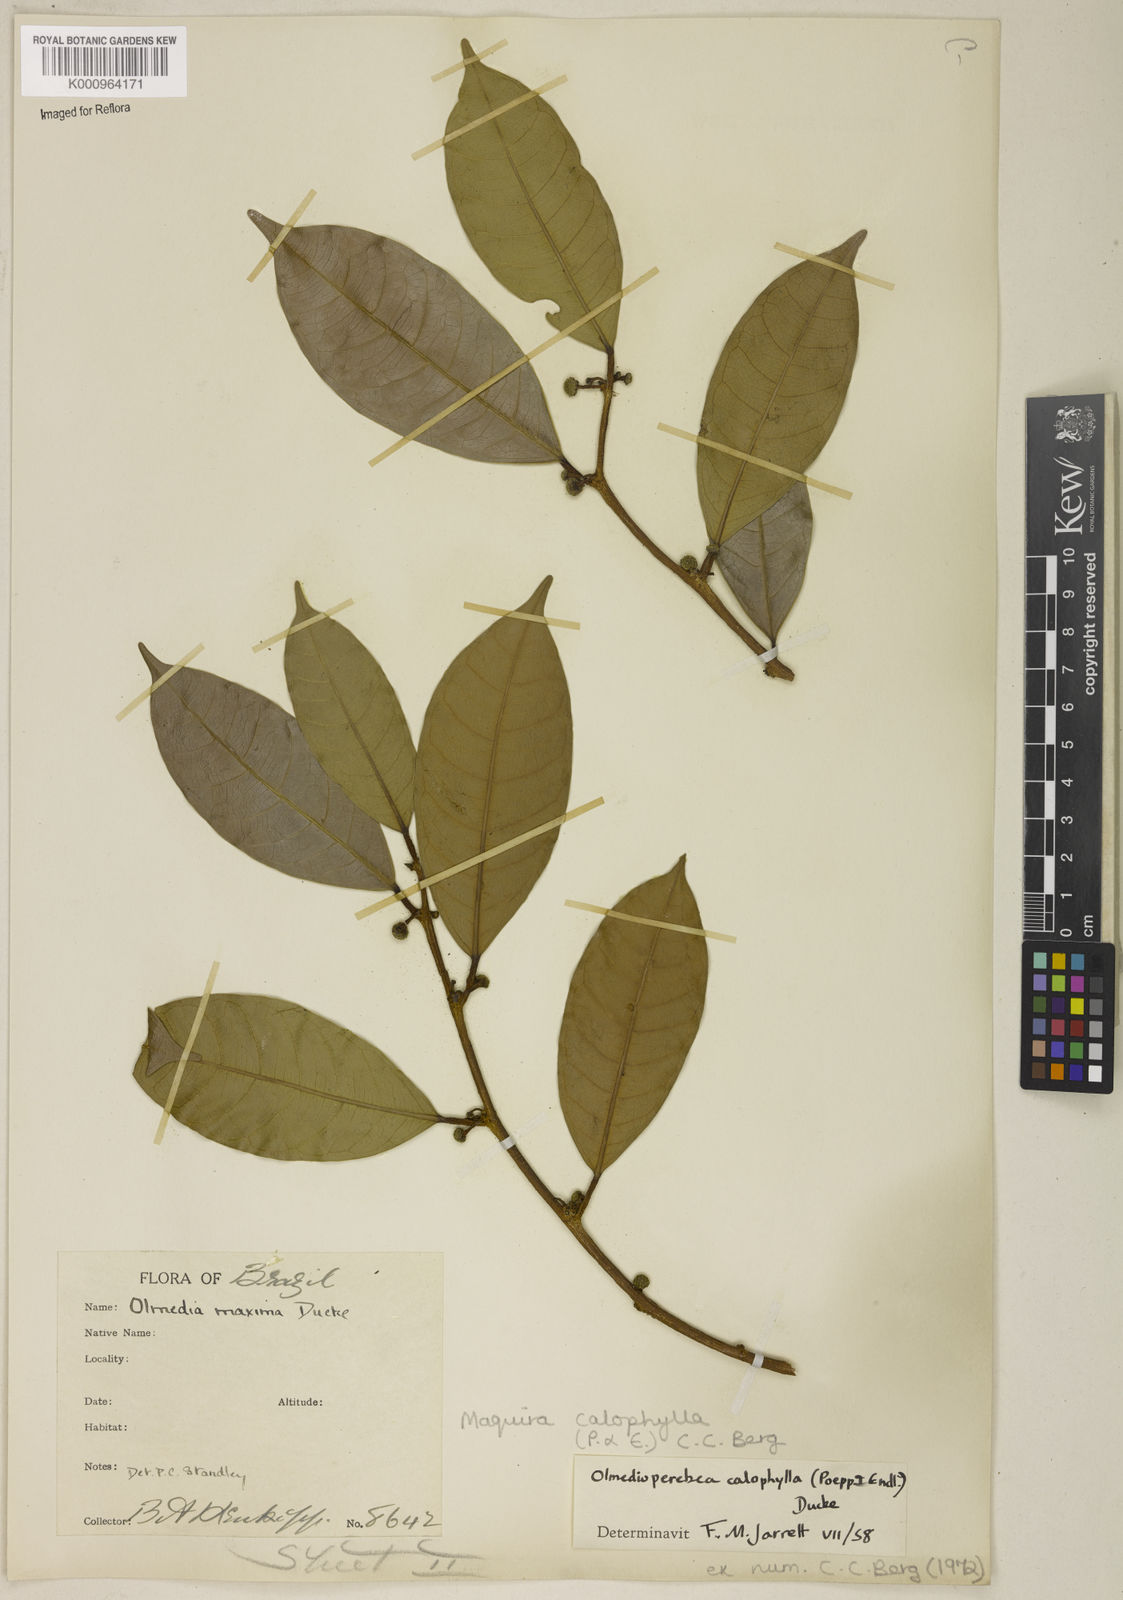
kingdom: Plantae
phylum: Tracheophyta
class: Magnoliopsida
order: Rosales
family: Moraceae
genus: Maquira
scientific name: Maquira calophylla
